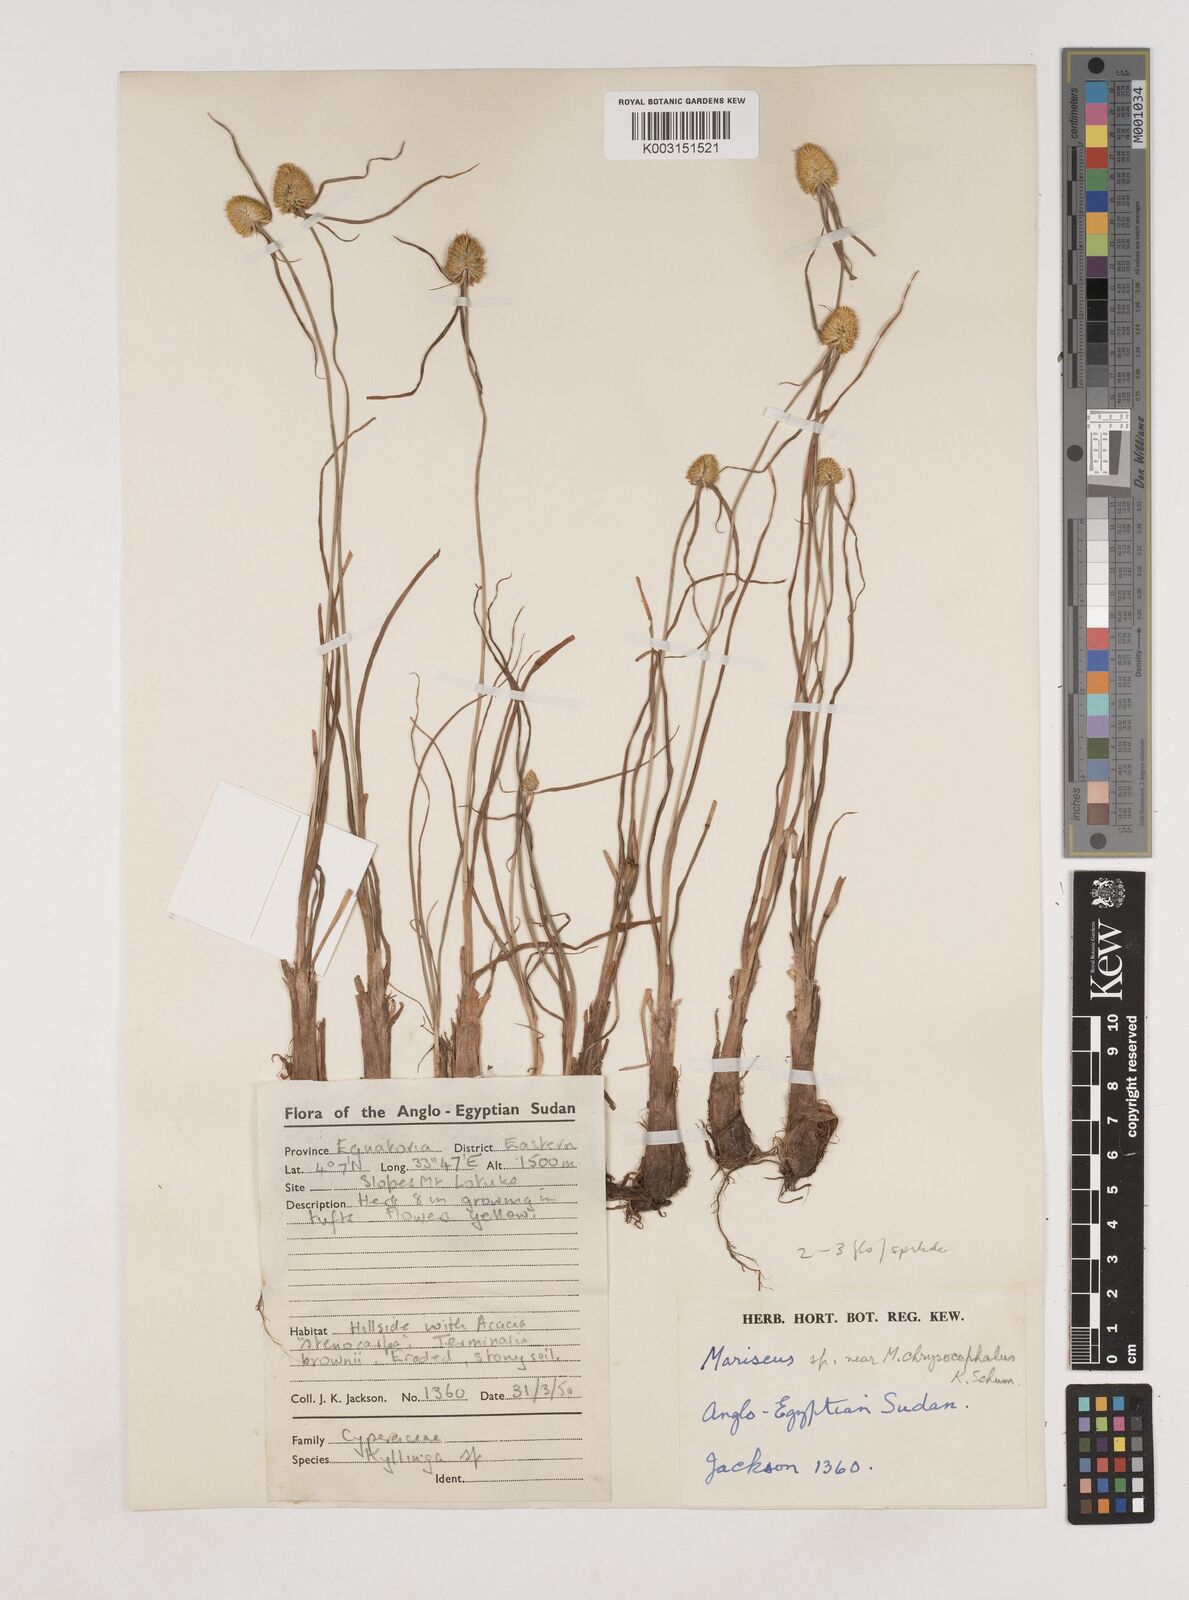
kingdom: Plantae
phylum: Tracheophyta
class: Liliopsida
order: Poales
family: Cyperaceae
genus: Cyperus
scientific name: Cyperus remotus
